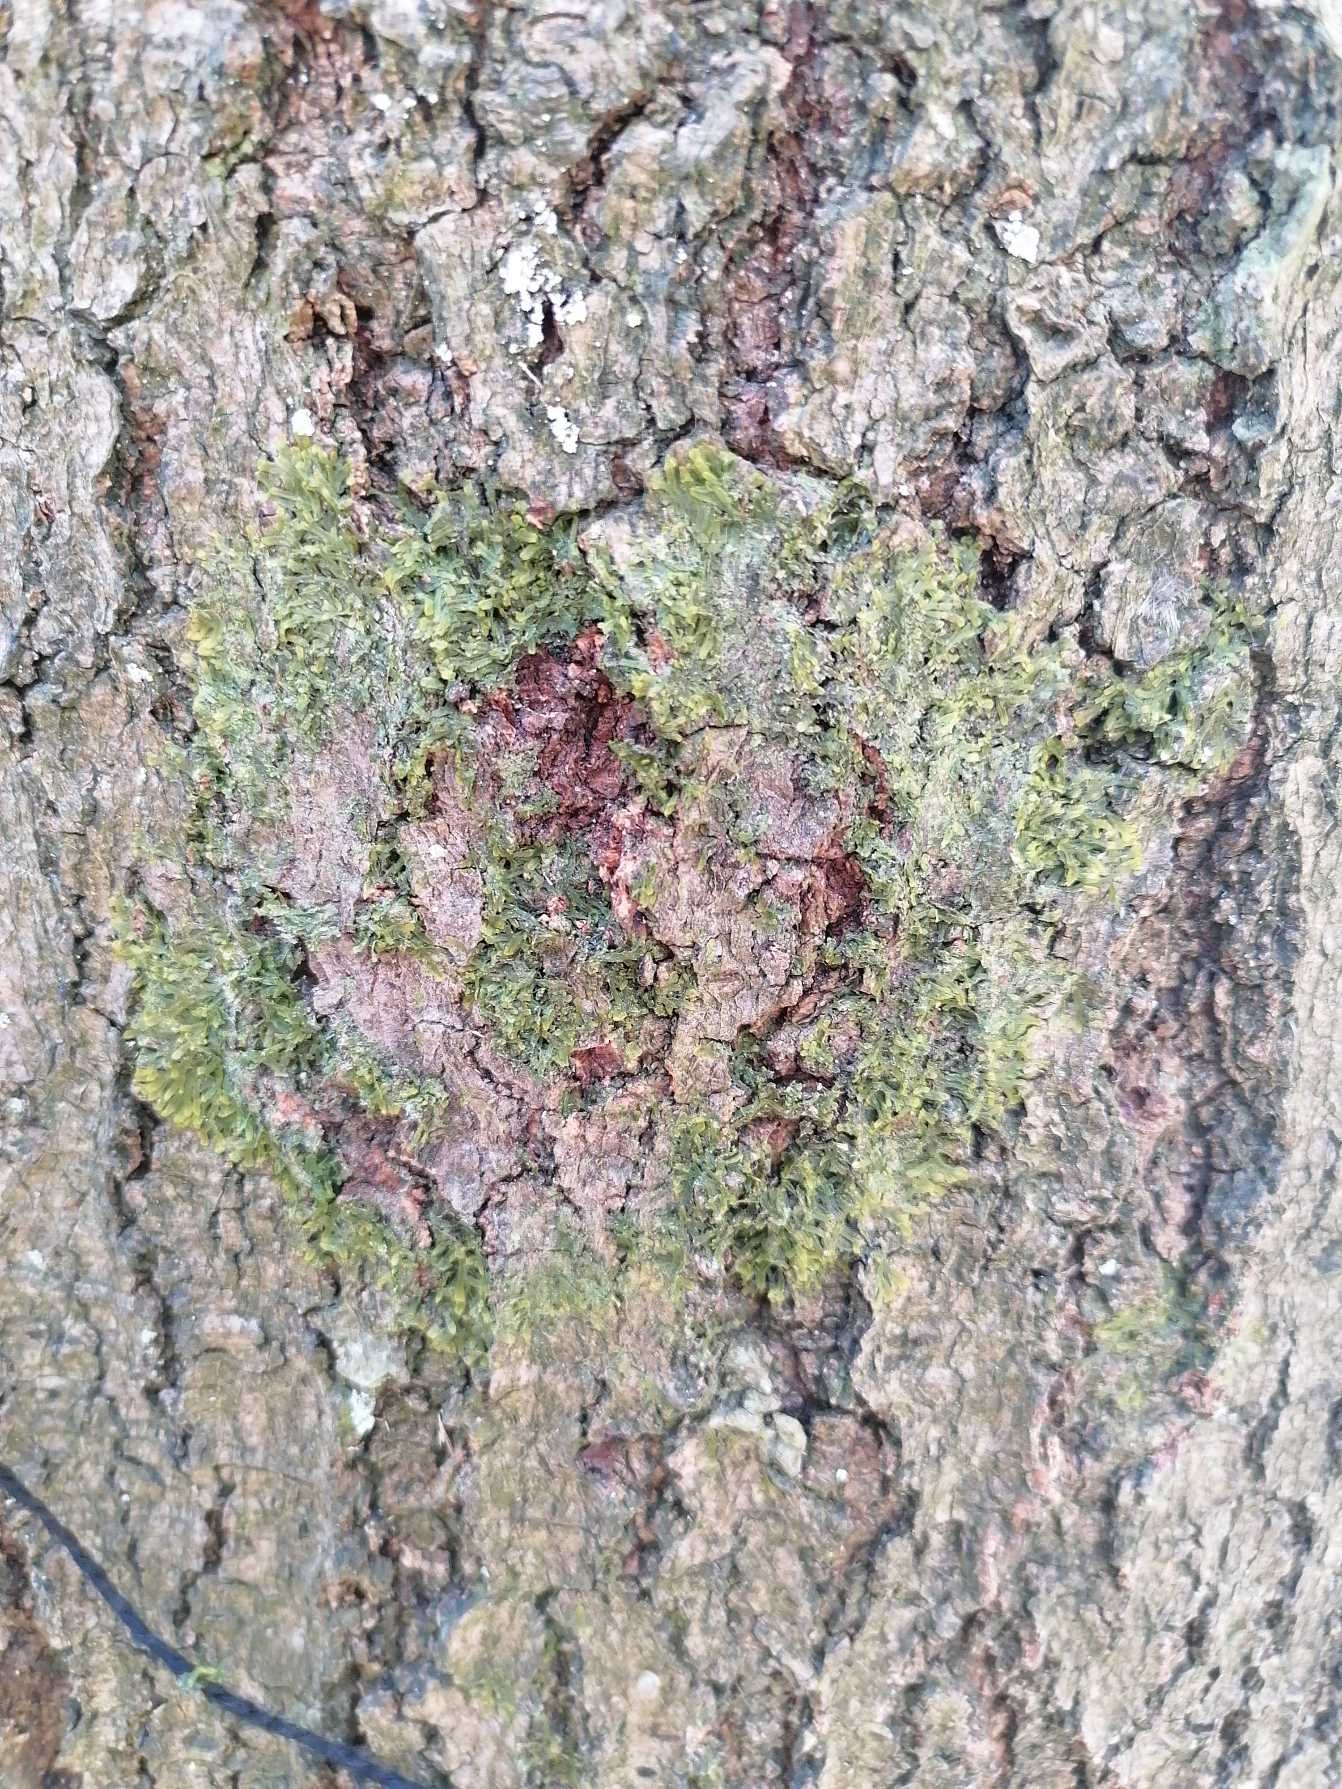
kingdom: Plantae
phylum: Marchantiophyta
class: Jungermanniopsida
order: Metzgeriales
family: Metzgeriaceae
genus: Metzgeria
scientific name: Metzgeria furcata
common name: Almindelig gaffelløv
